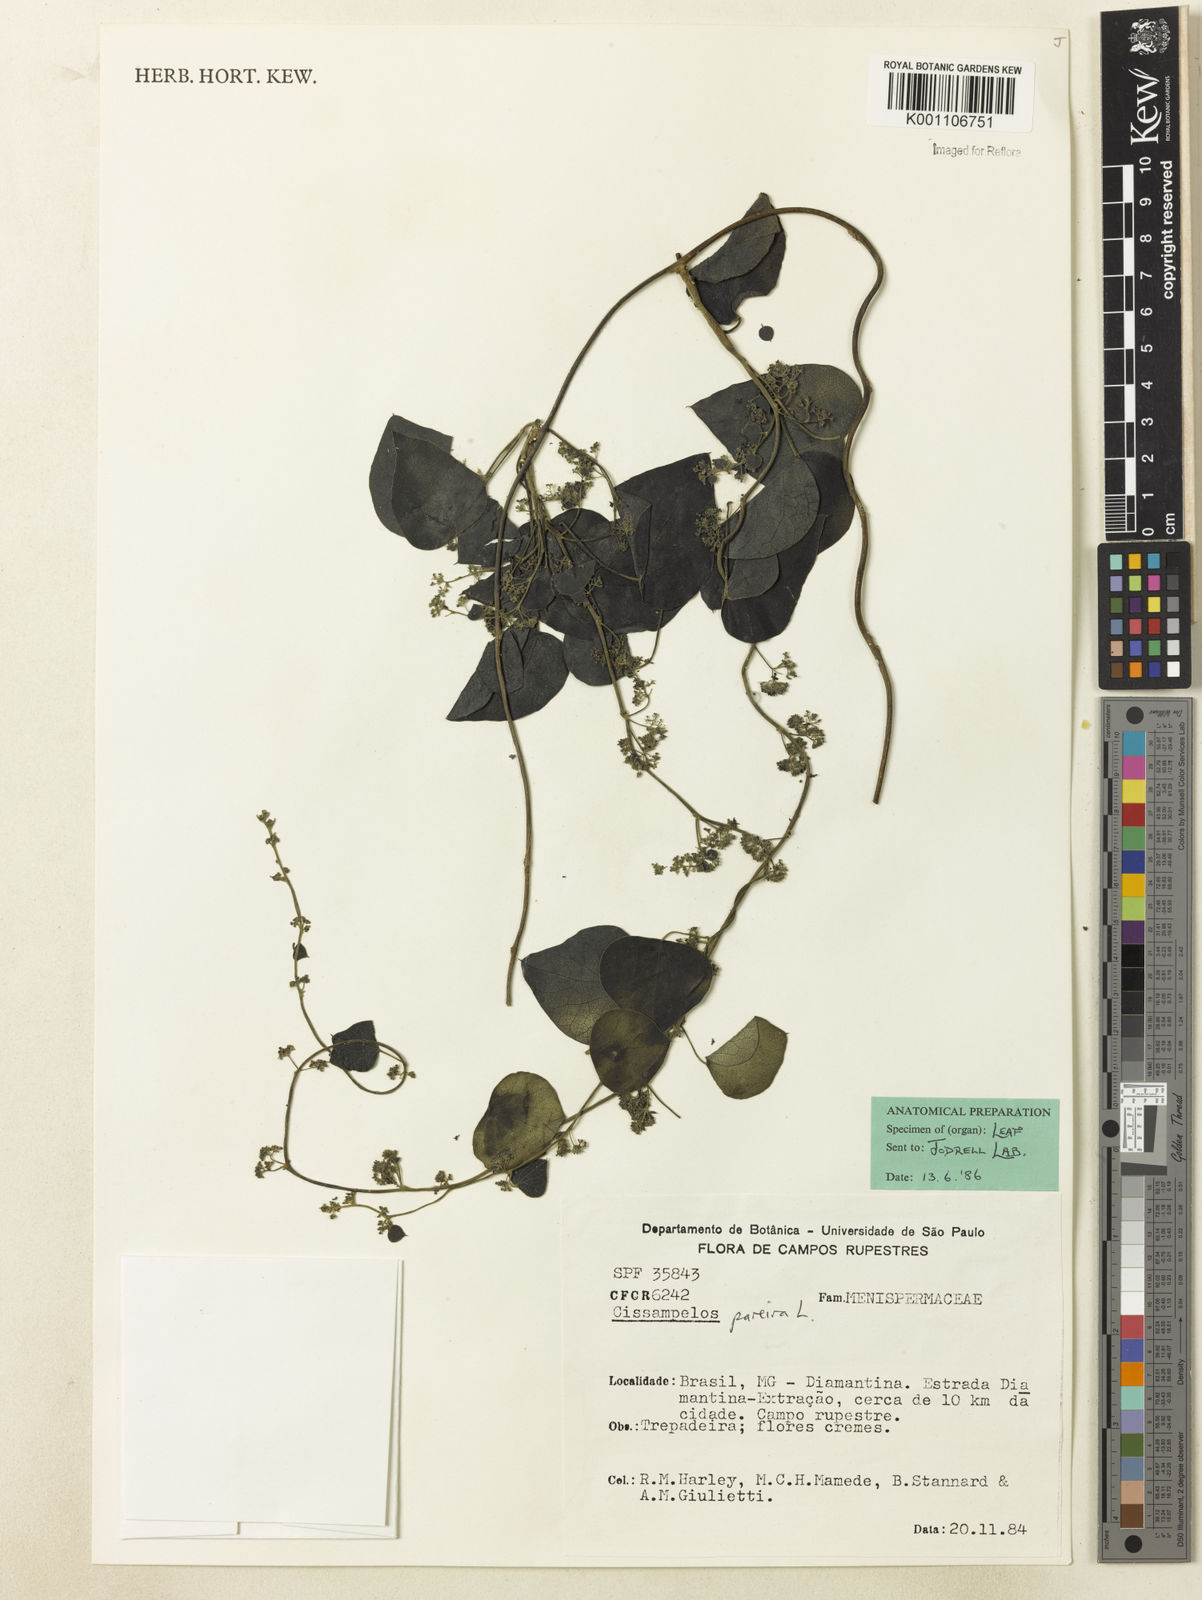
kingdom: Plantae
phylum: Tracheophyta
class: Magnoliopsida
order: Ranunculales
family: Menispermaceae
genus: Cissampelos
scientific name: Cissampelos pareira
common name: Velvetleaf
